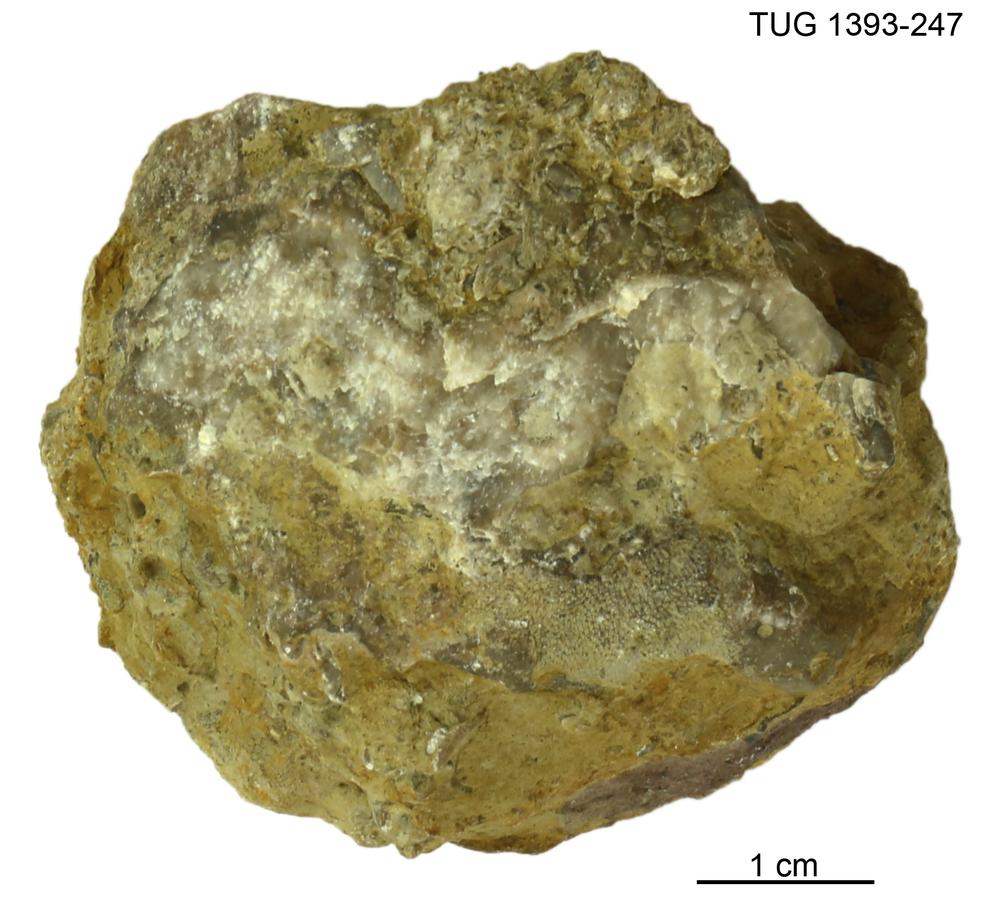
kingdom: Animalia
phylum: Bryozoa
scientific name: Bryozoa
